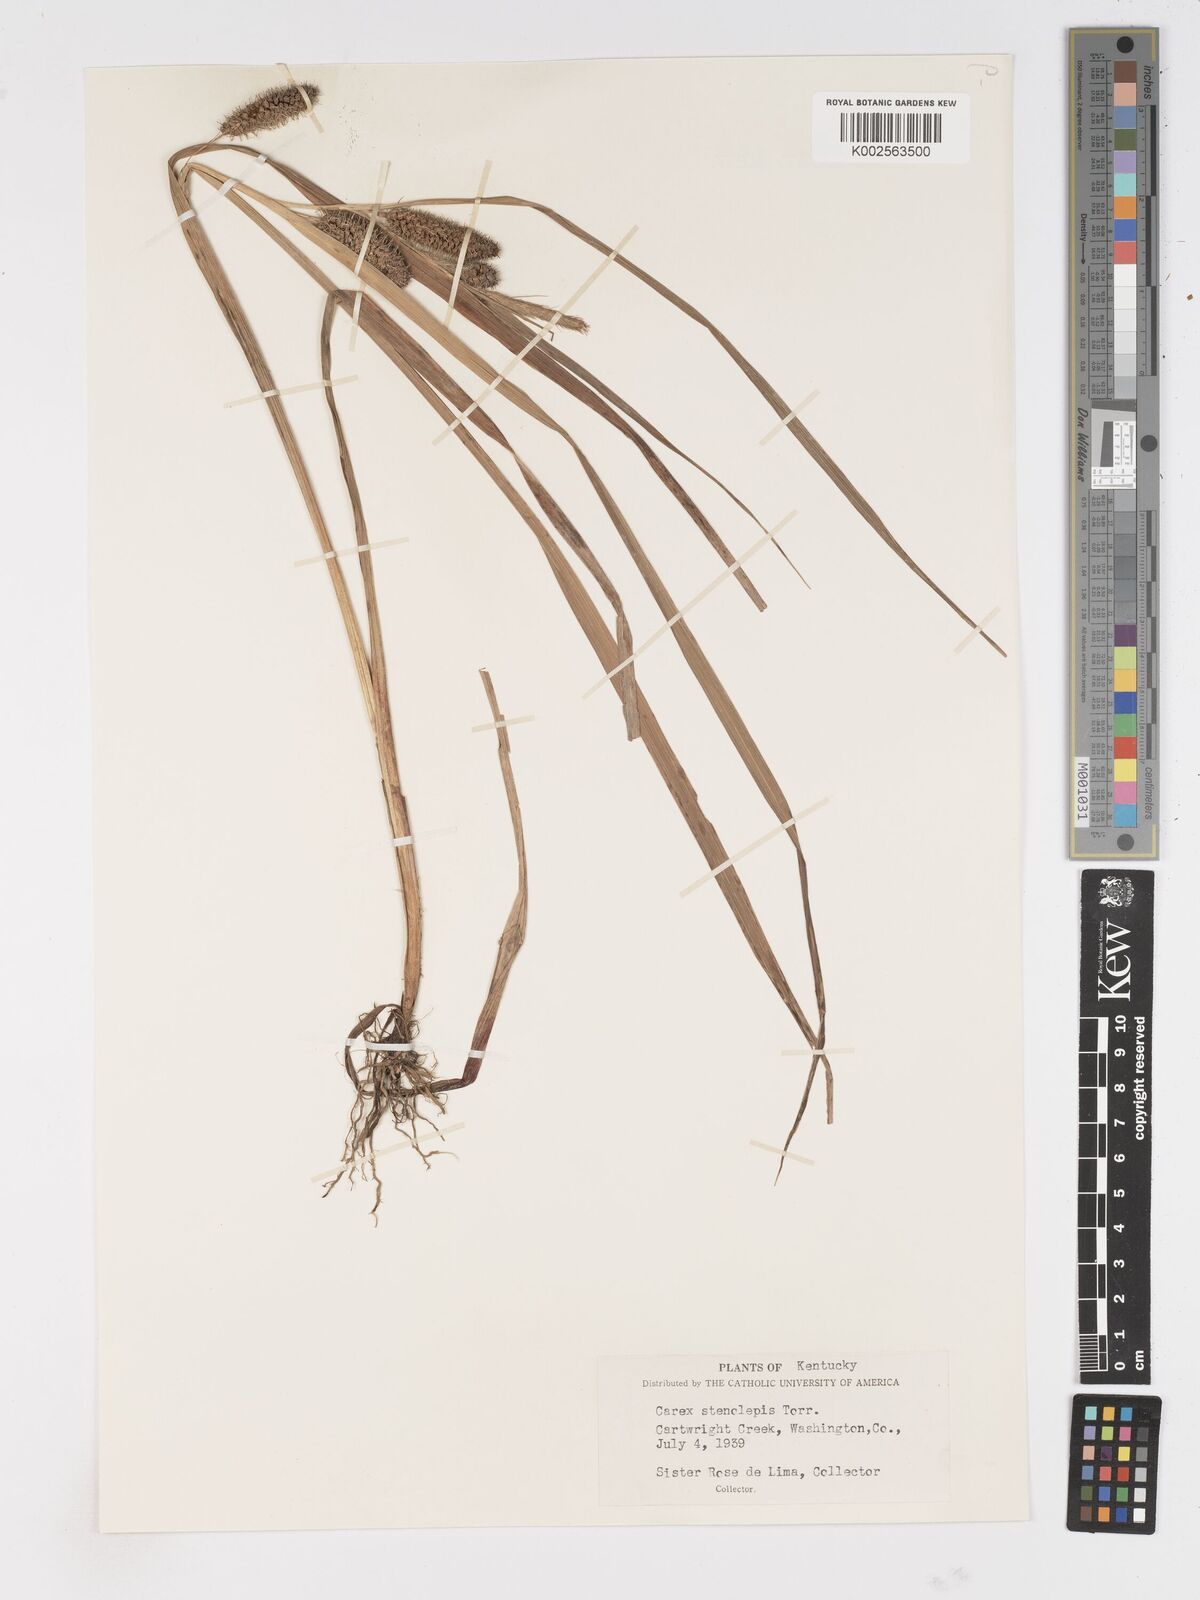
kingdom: Plantae
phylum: Tracheophyta
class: Liliopsida
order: Poales
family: Cyperaceae
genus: Carex
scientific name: Carex frankii
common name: Frank's sedge
